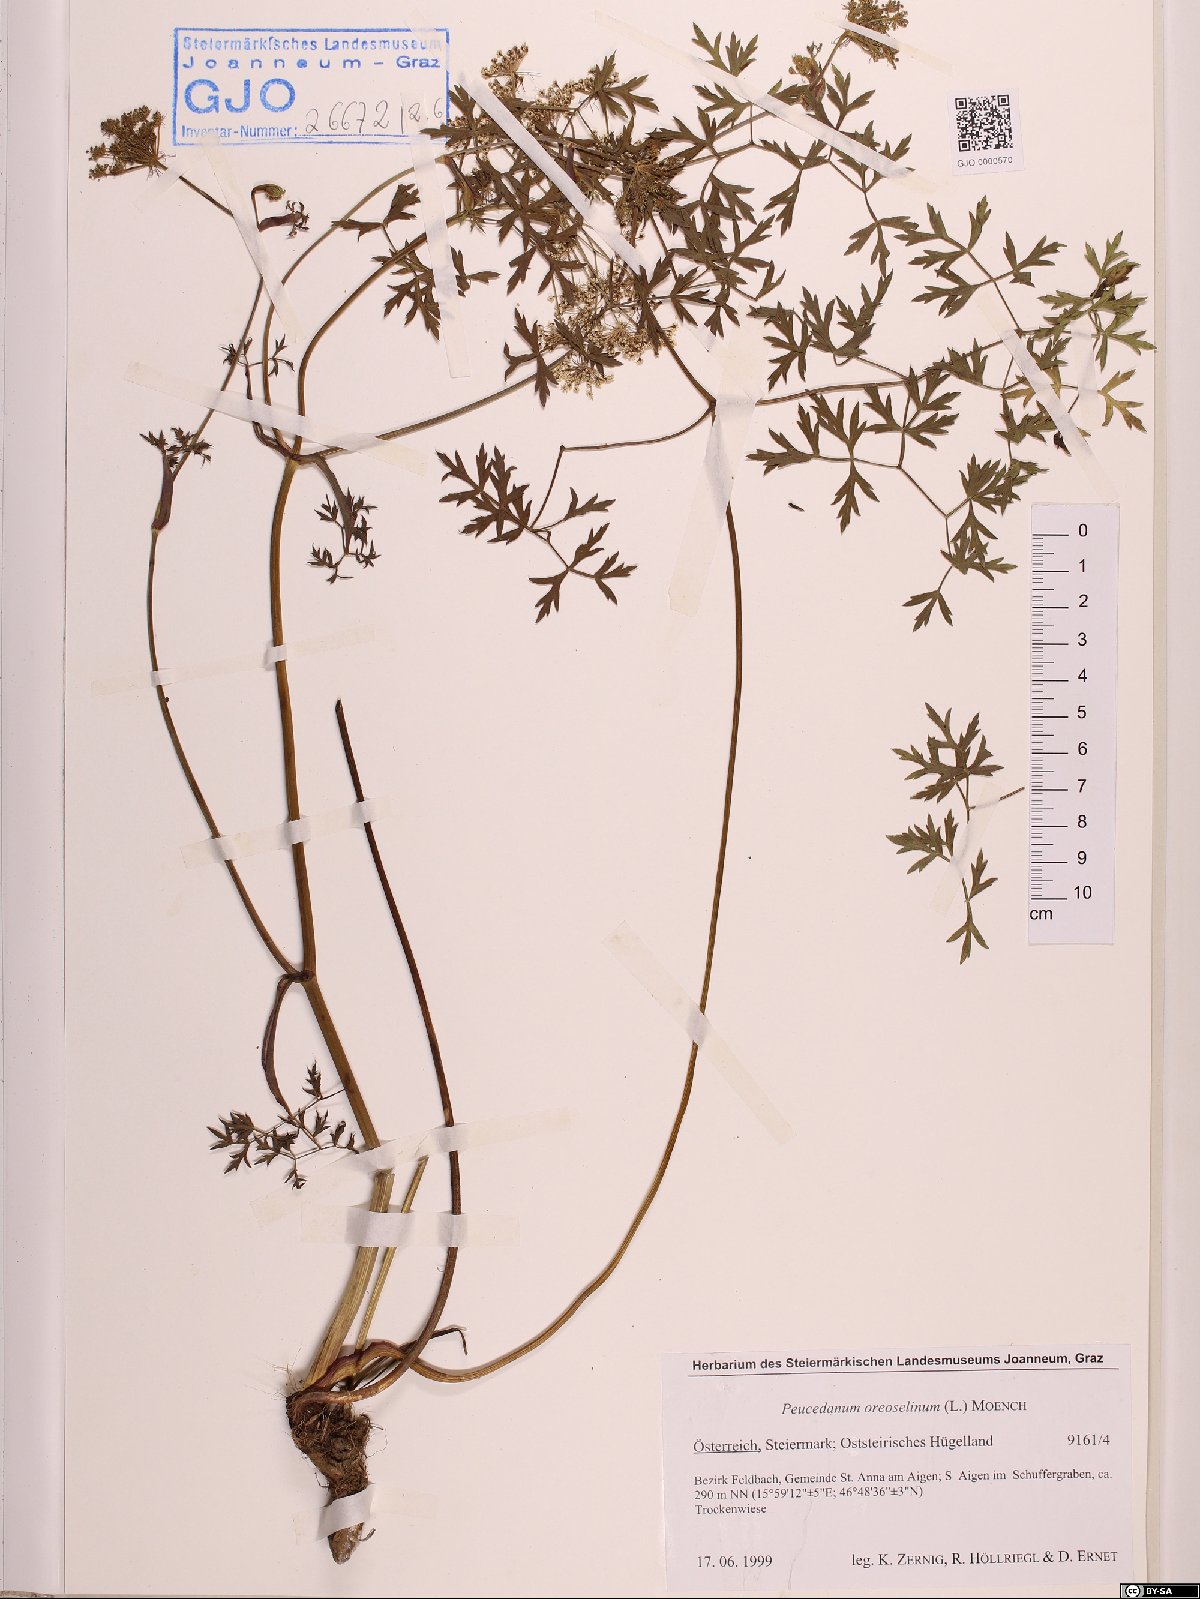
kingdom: Plantae
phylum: Tracheophyta
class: Magnoliopsida
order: Apiales
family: Apiaceae
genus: Oreoselinum
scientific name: Oreoselinum nigrum
